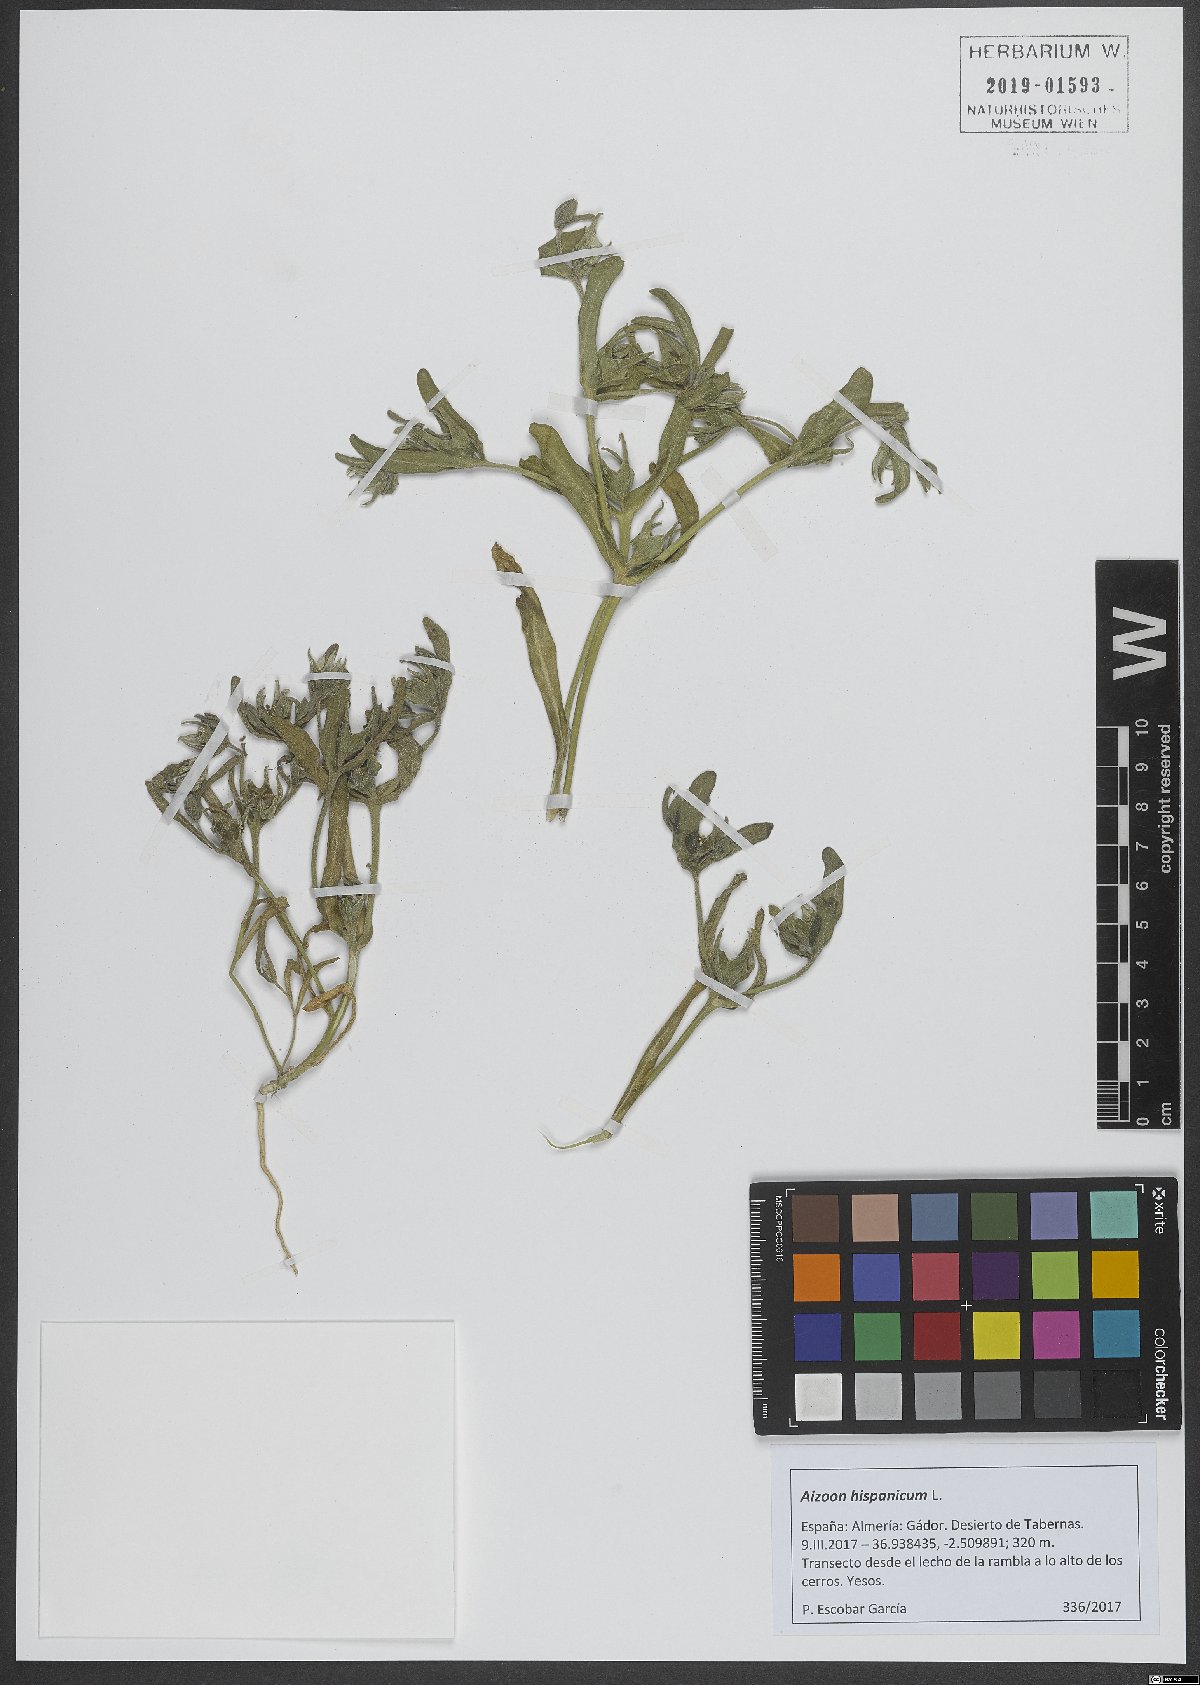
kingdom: Plantae
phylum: Tracheophyta
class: Magnoliopsida
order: Caryophyllales
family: Aizoaceae
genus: Aizoanthemopsis
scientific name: Aizoanthemopsis hispanica
